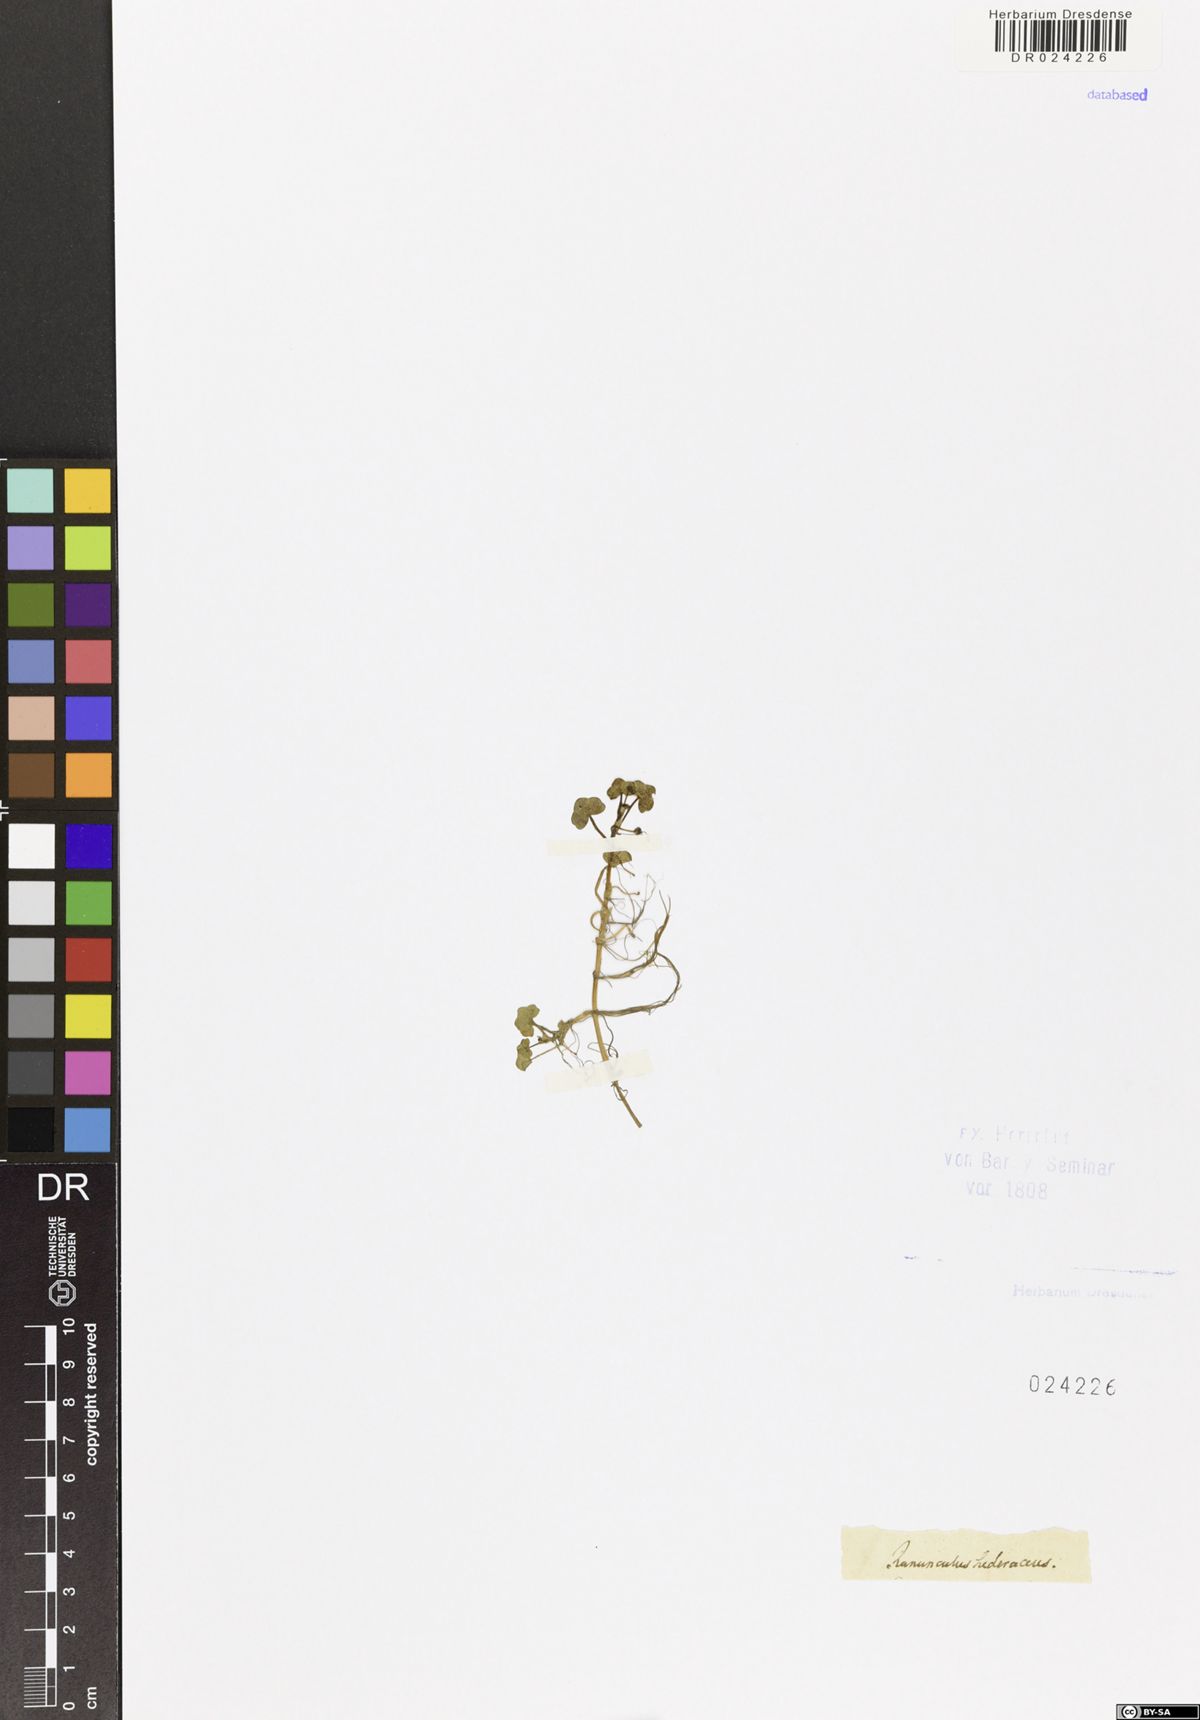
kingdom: Plantae
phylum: Tracheophyta
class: Magnoliopsida
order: Ranunculales
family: Ranunculaceae
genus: Ranunculus
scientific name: Ranunculus hederaceus
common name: Ivy-leaved crowfoot
